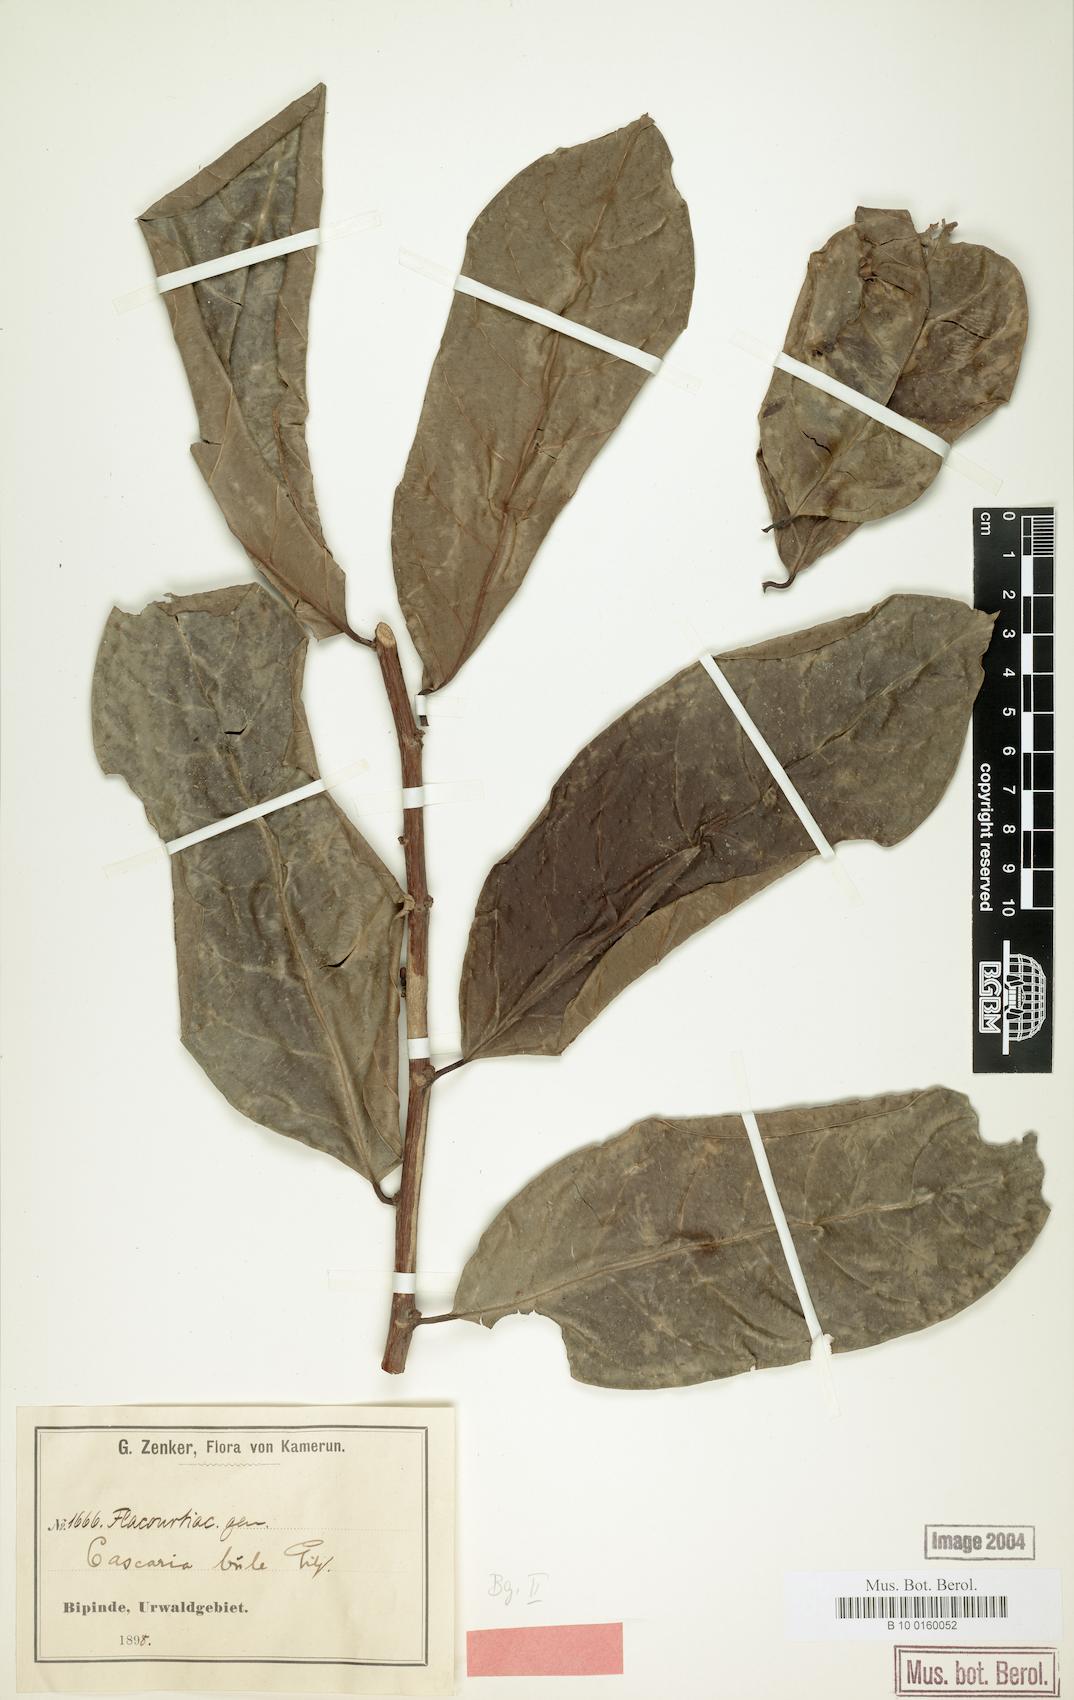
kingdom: Plantae
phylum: Tracheophyta
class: Magnoliopsida
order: Malpighiales
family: Salicaceae
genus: Casearia
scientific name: Casearia barteri
